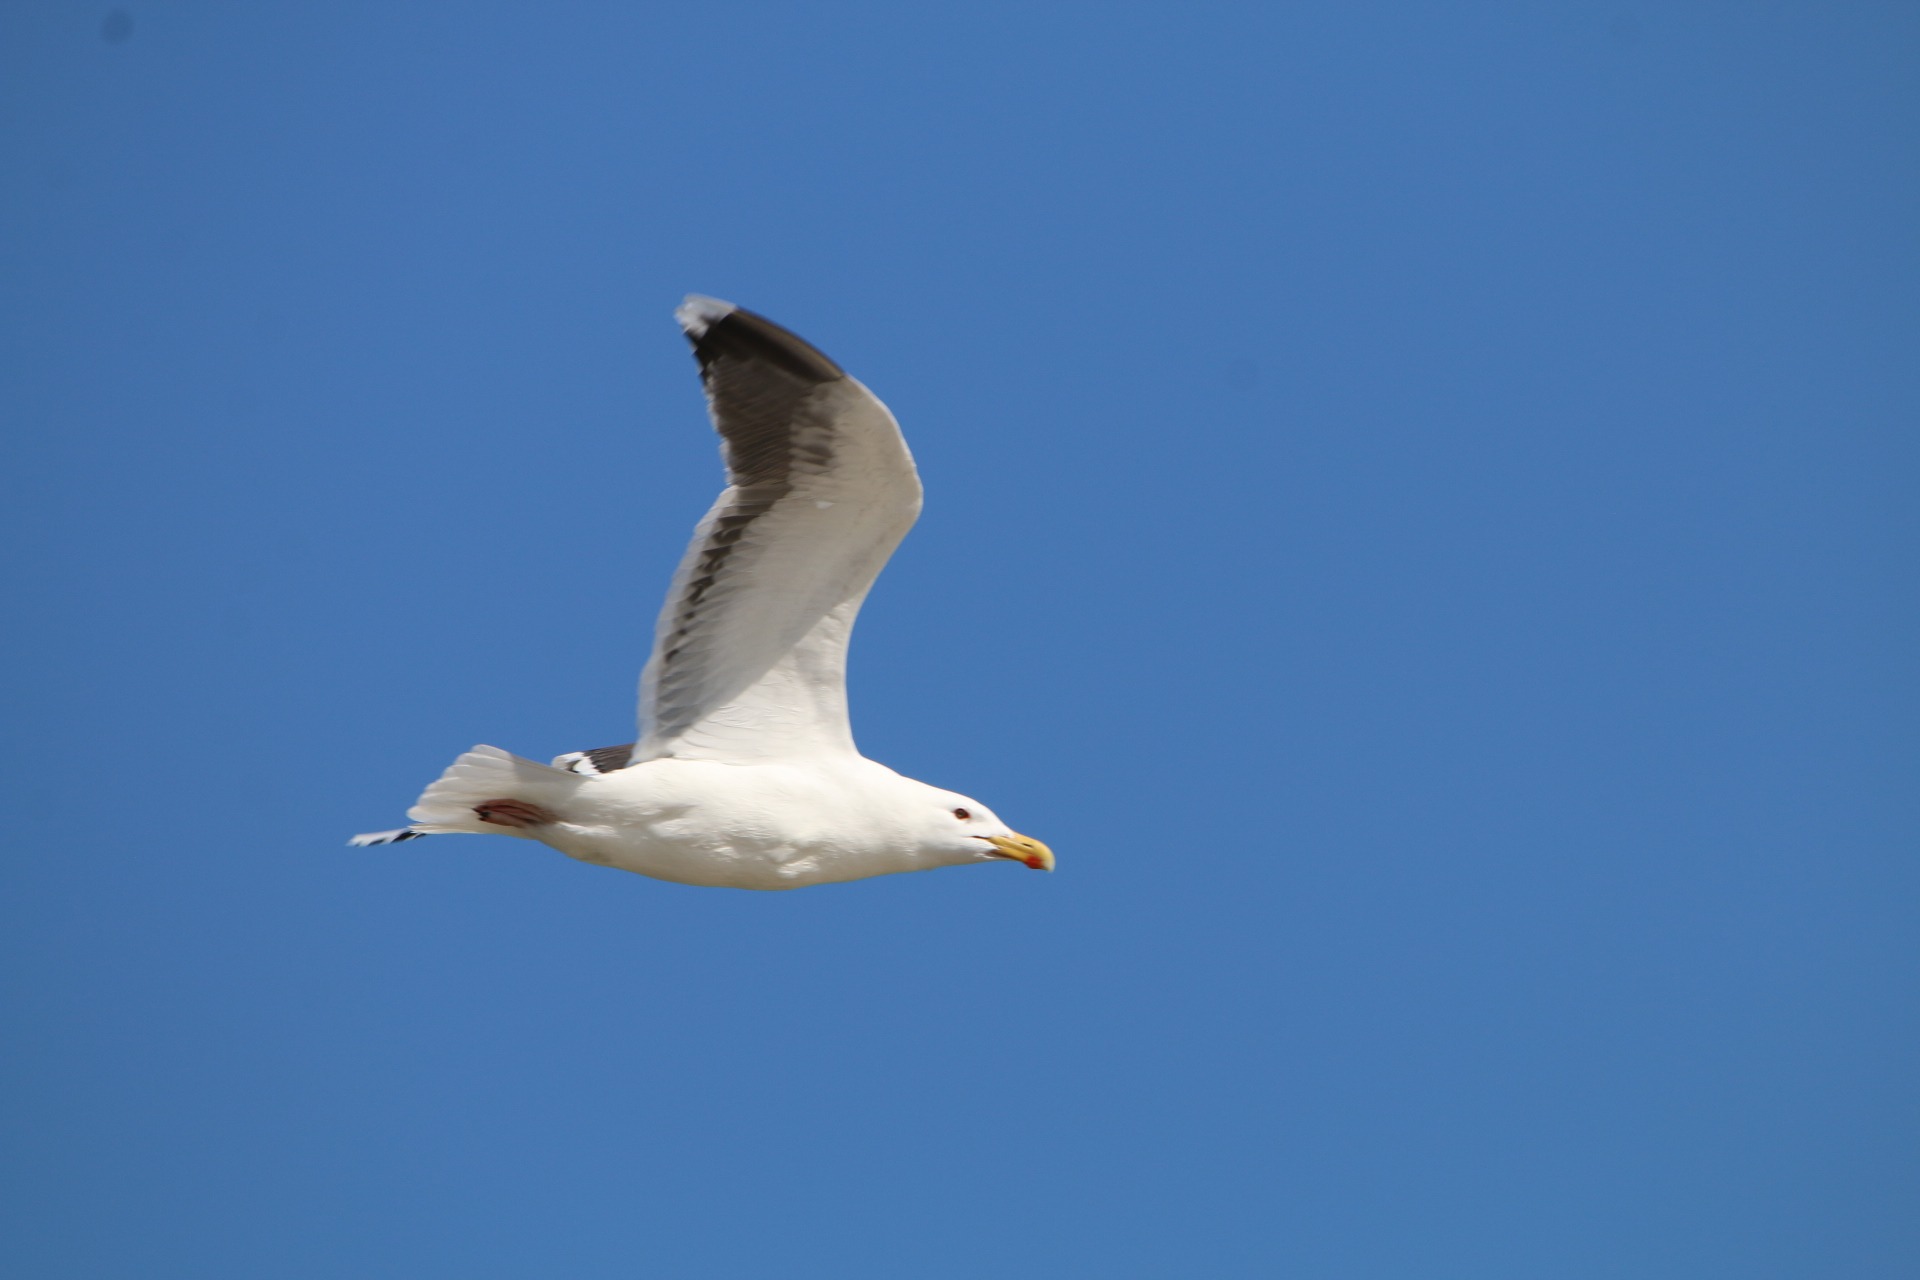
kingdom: Animalia
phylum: Chordata
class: Aves
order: Charadriiformes
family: Laridae
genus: Larus
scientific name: Larus marinus
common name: Svartbag
